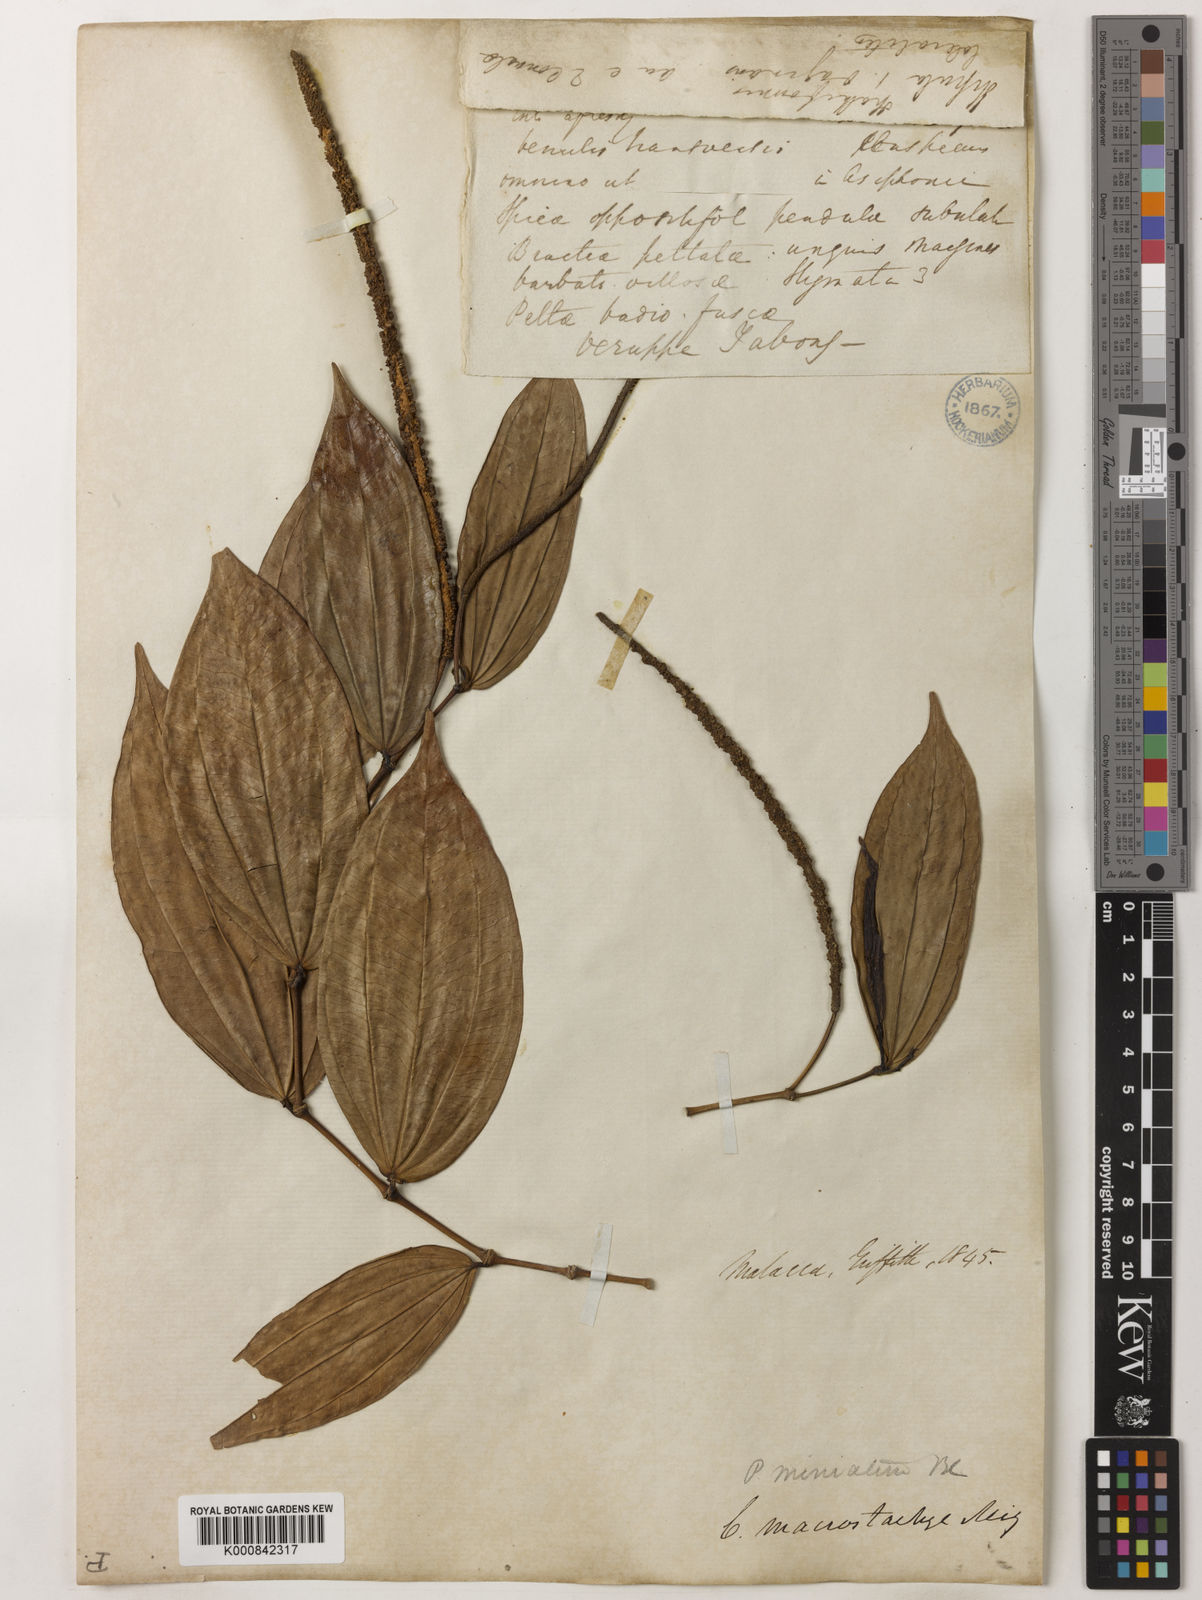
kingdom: Plantae
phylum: Tracheophyta
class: Magnoliopsida
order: Piperales
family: Piperaceae
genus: Piper
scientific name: Piper macropiper
